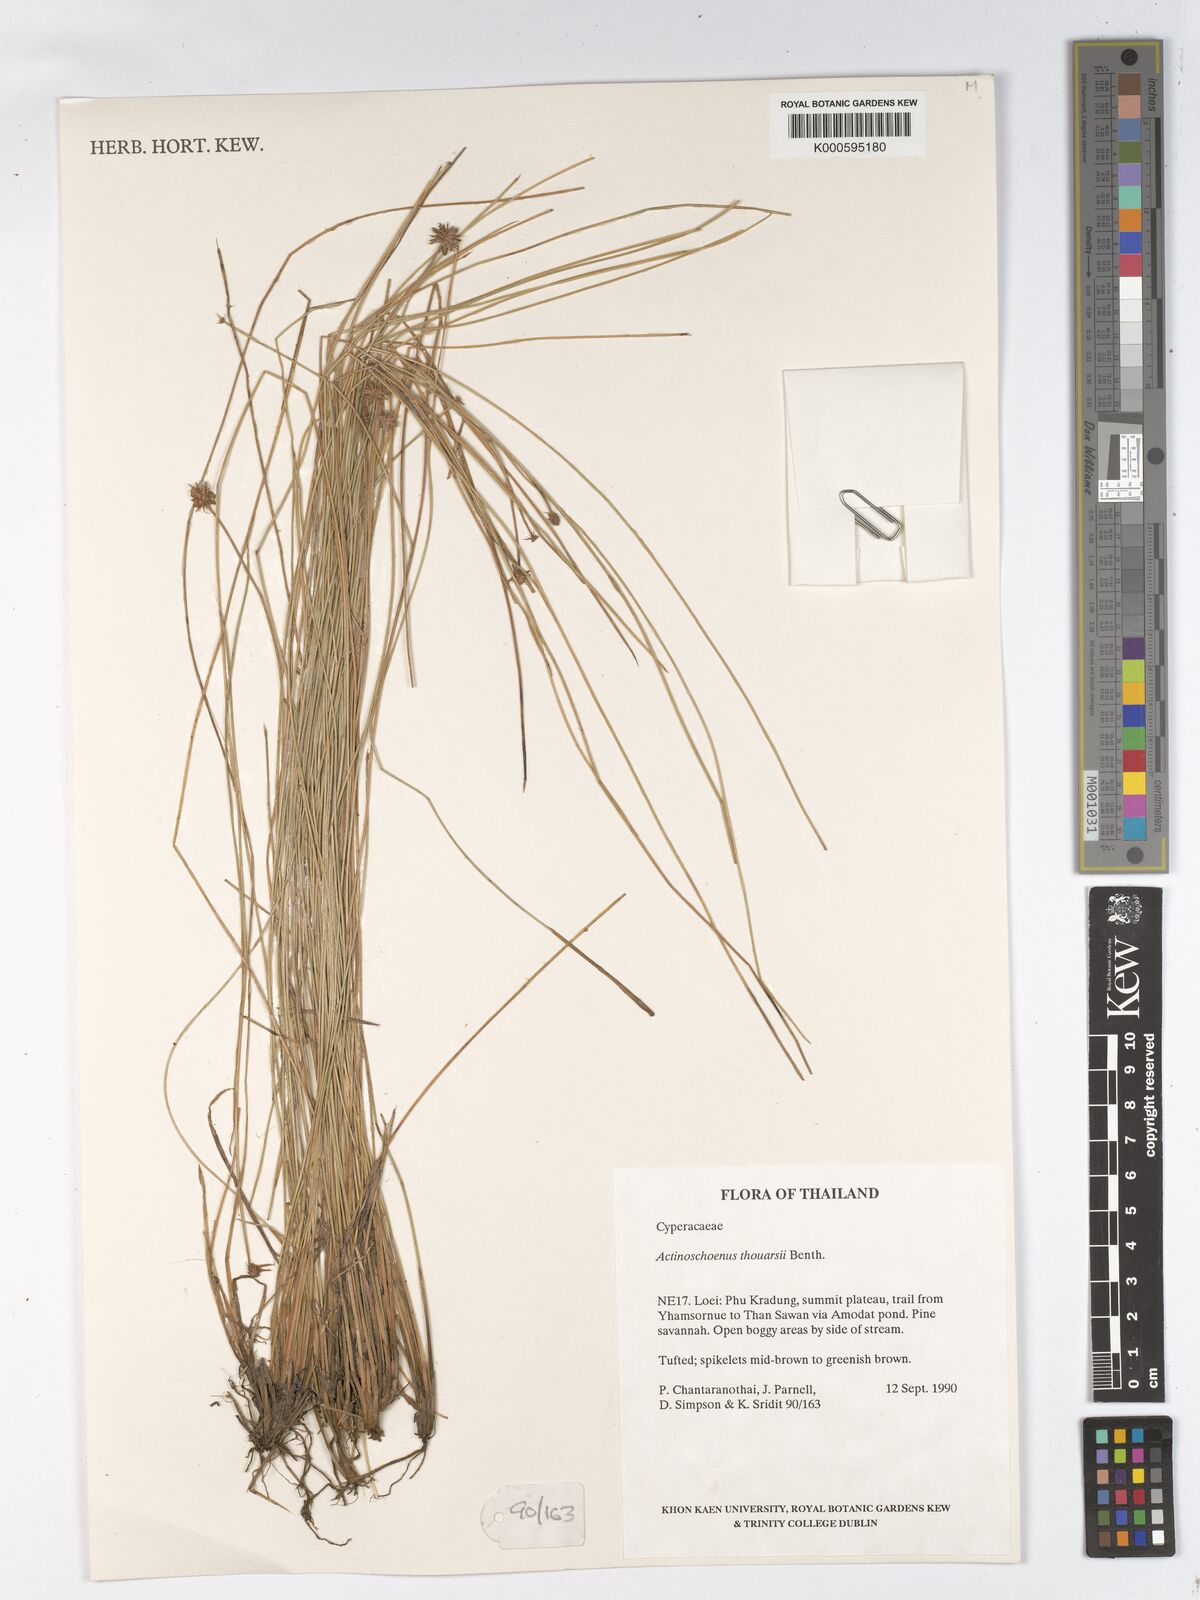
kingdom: Plantae
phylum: Tracheophyta
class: Liliopsida
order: Poales
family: Cyperaceae
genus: Actinoschoenus
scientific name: Actinoschoenus aphyllus
